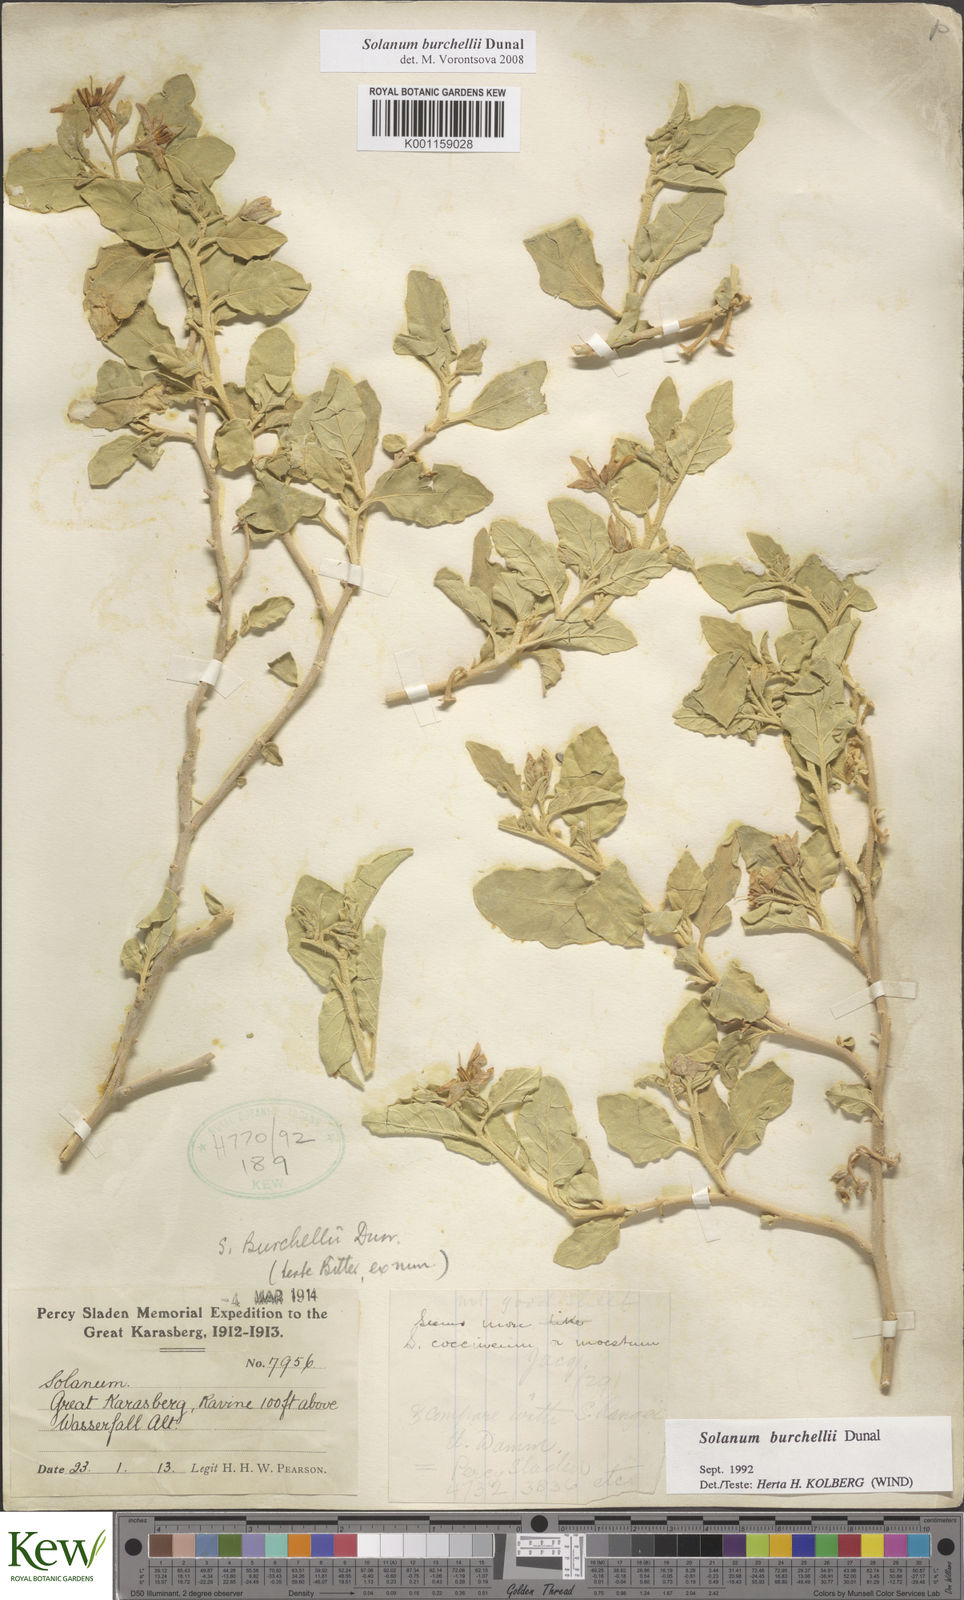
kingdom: Plantae
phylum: Tracheophyta
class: Magnoliopsida
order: Solanales
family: Solanaceae
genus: Solanum
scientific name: Solanum burchellii
